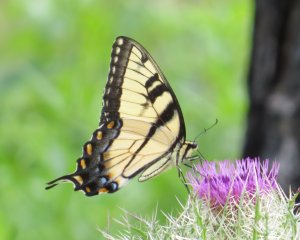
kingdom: Animalia
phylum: Arthropoda
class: Insecta
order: Lepidoptera
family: Papilionidae
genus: Pterourus
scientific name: Pterourus glaucus
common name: Eastern Tiger Swallowtail
